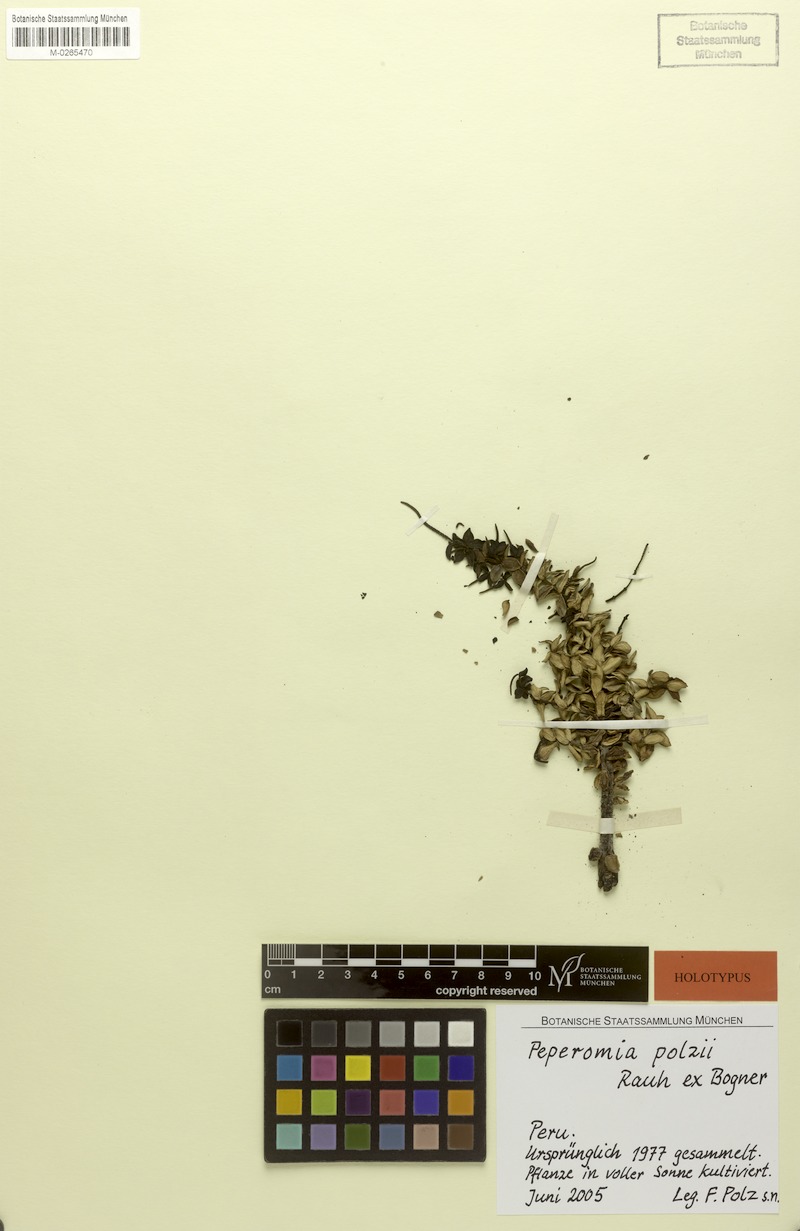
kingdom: Plantae
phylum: Tracheophyta
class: Magnoliopsida
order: Piperales
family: Piperaceae
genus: Peperomia
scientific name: Peperomia polzii
